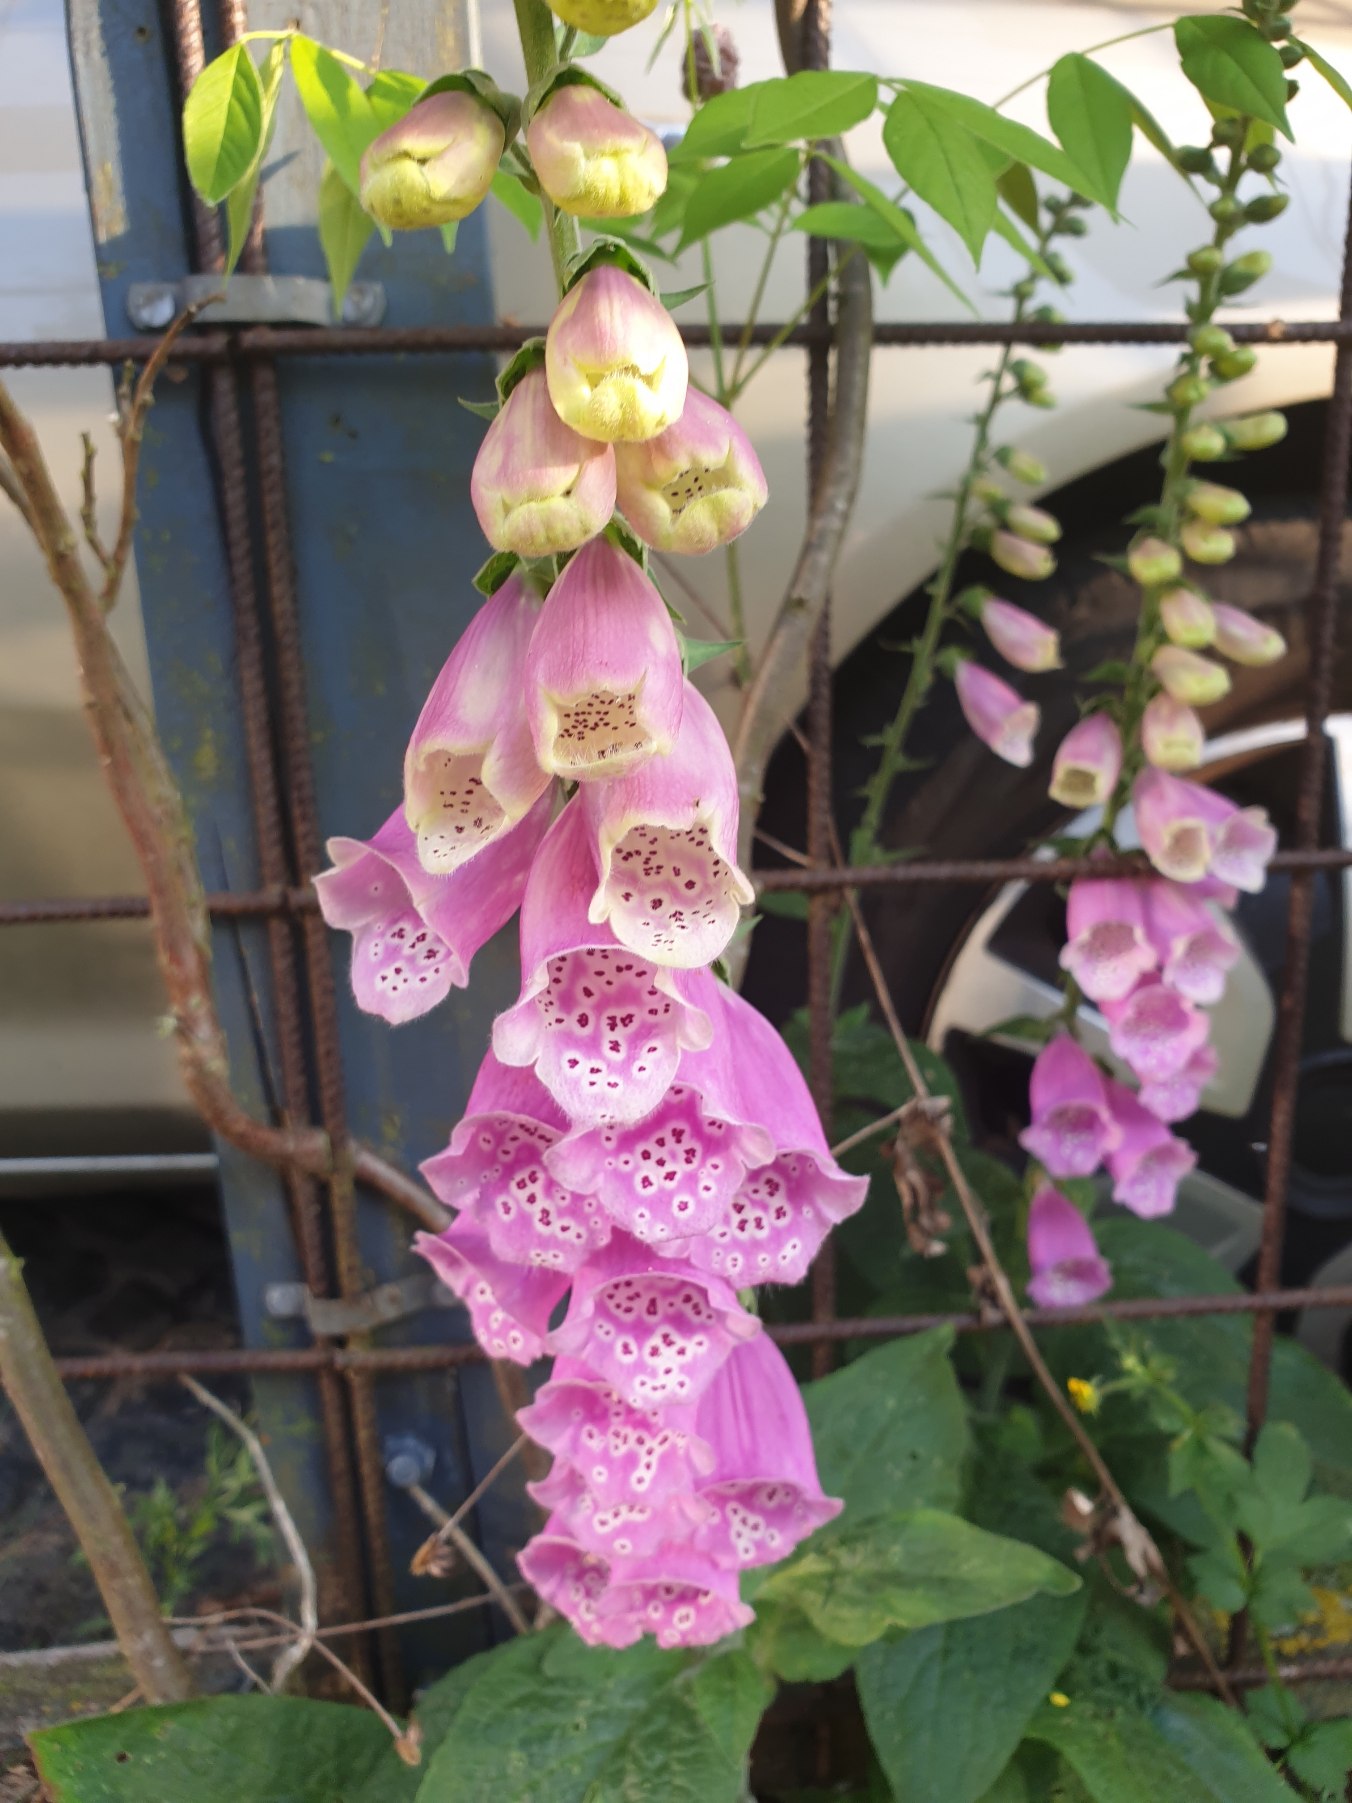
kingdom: Plantae
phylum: Tracheophyta
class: Magnoliopsida
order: Lamiales
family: Plantaginaceae
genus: Digitalis
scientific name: Digitalis purpurea
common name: Almindelig fingerbøl
